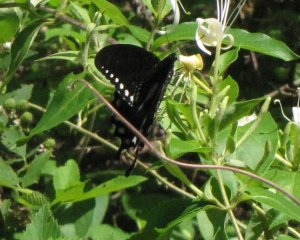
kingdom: Animalia
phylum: Arthropoda
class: Insecta
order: Lepidoptera
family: Papilionidae
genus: Pterourus
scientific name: Pterourus troilus
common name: Spicebush Swallowtail
